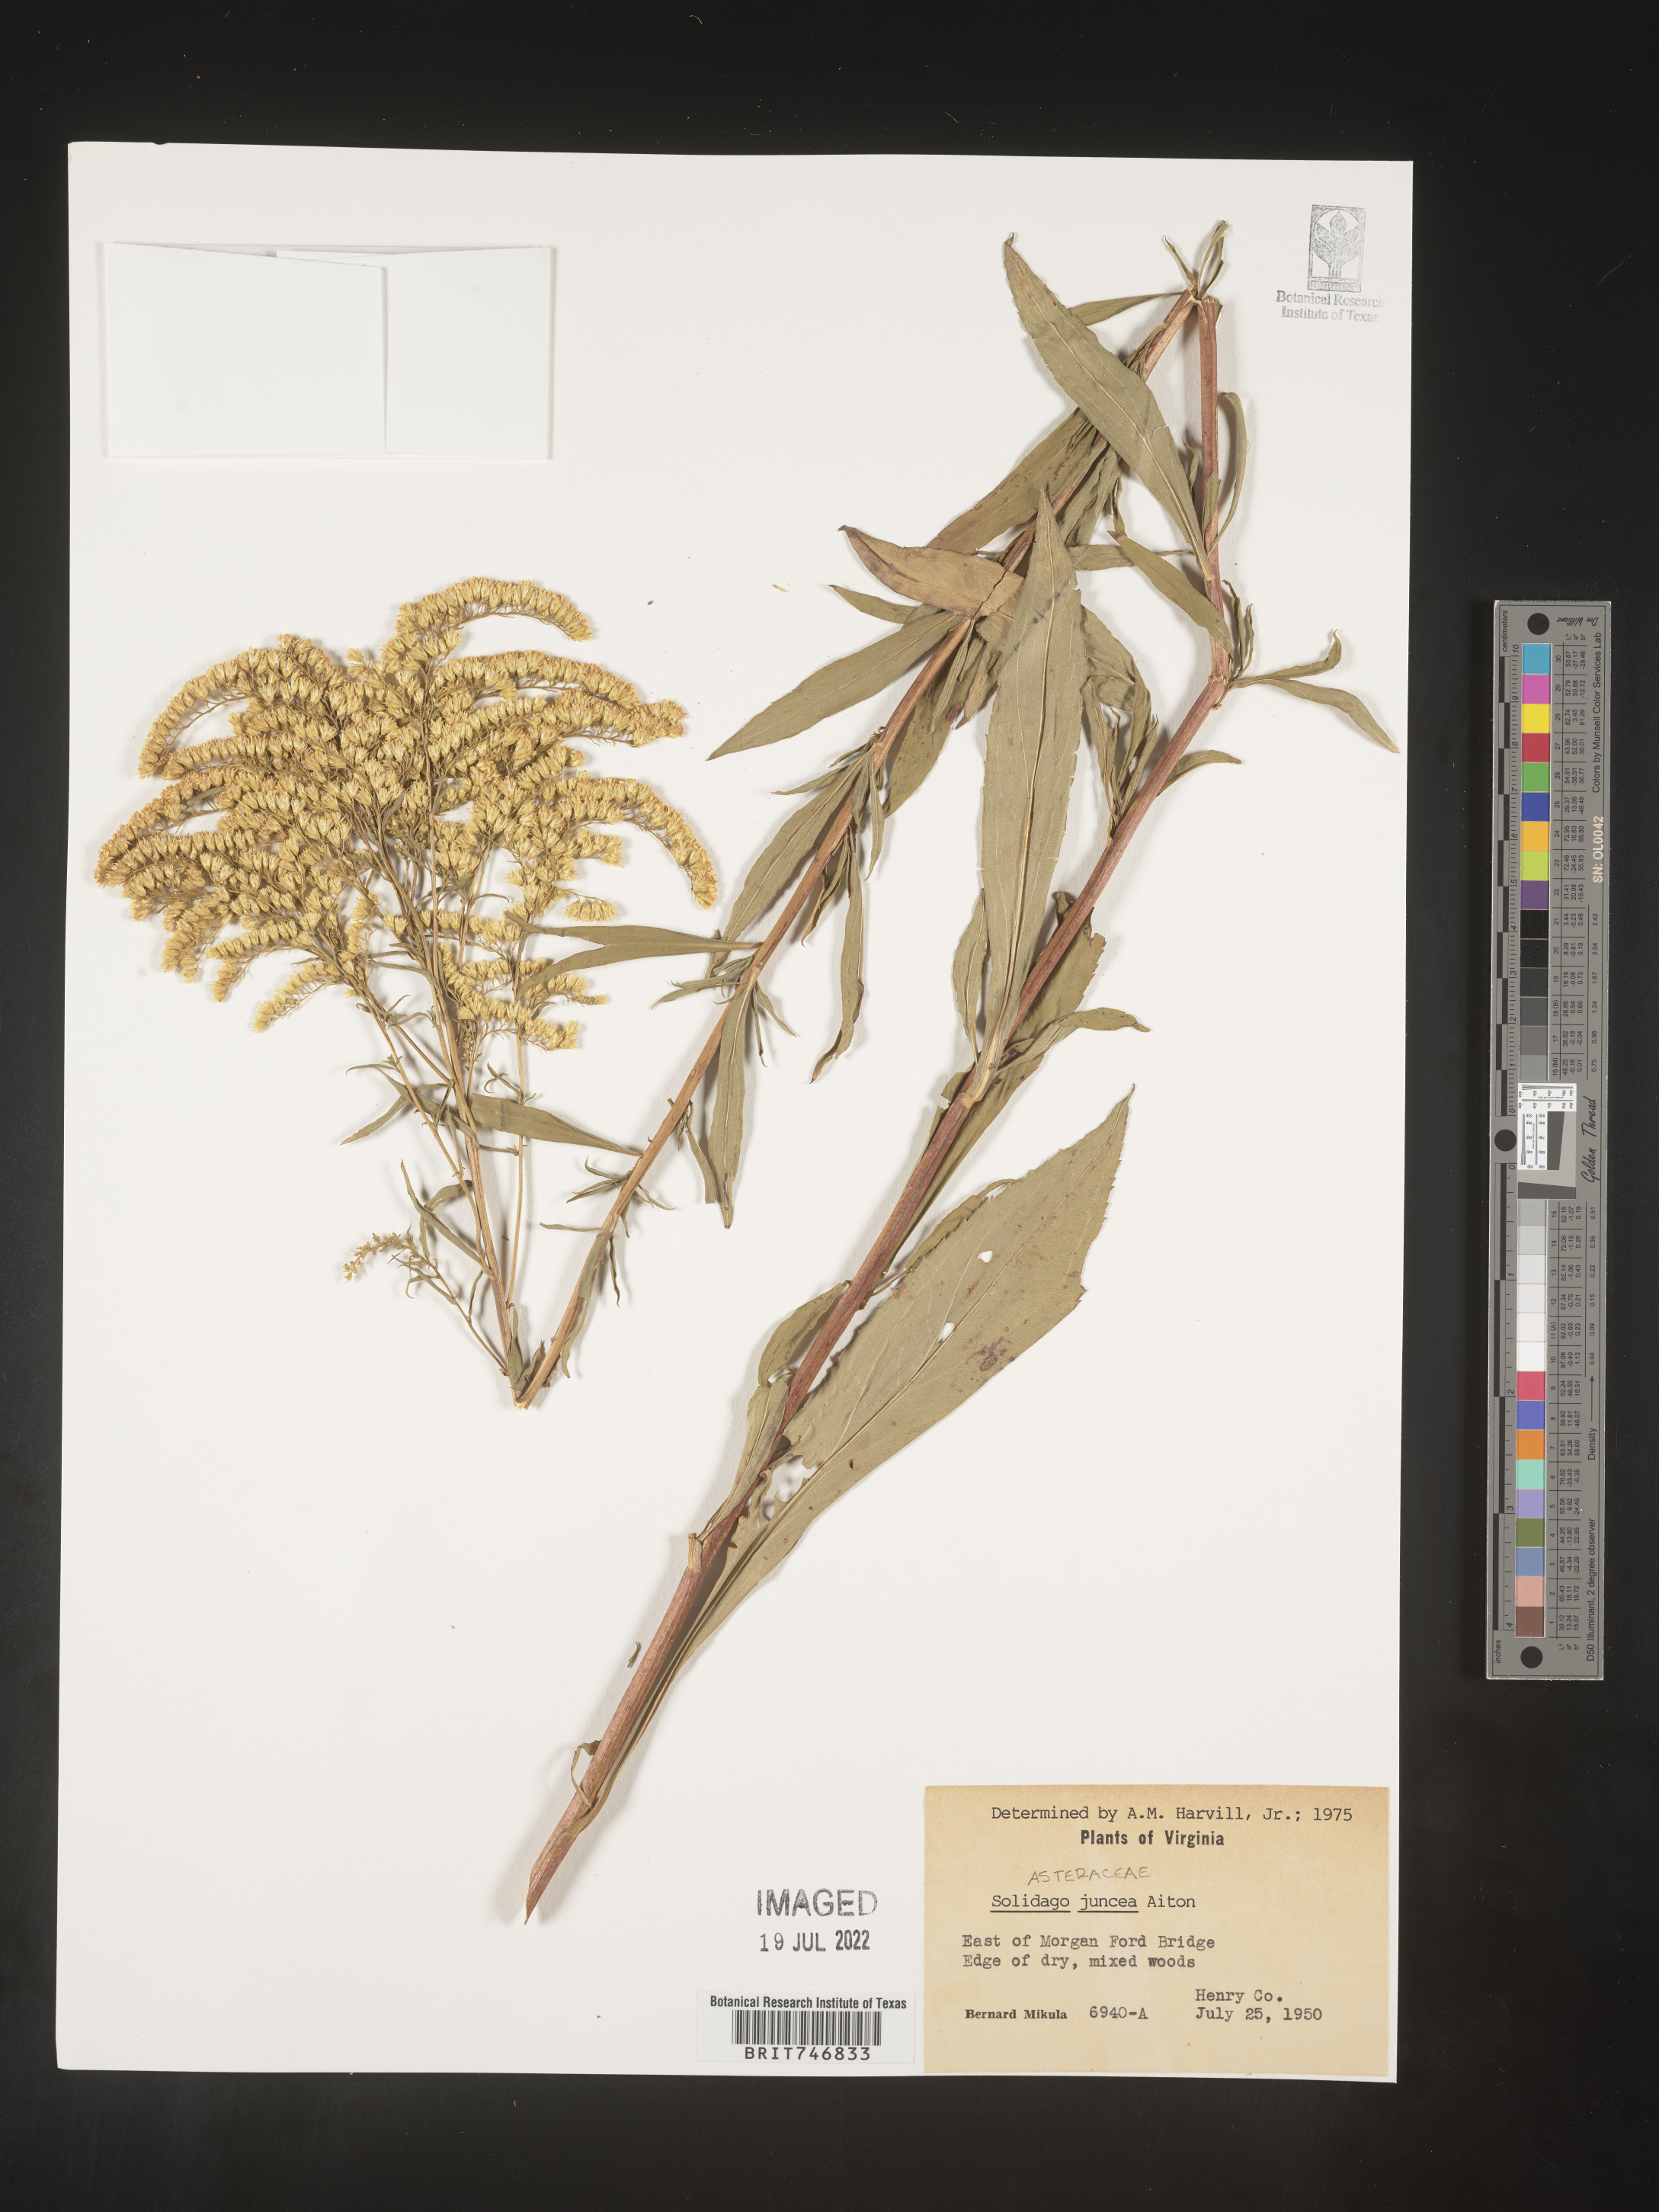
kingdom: Plantae
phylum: Tracheophyta
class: Magnoliopsida
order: Asterales
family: Asteraceae
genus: Solidago
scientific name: Solidago juncea
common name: Early goldenrod
